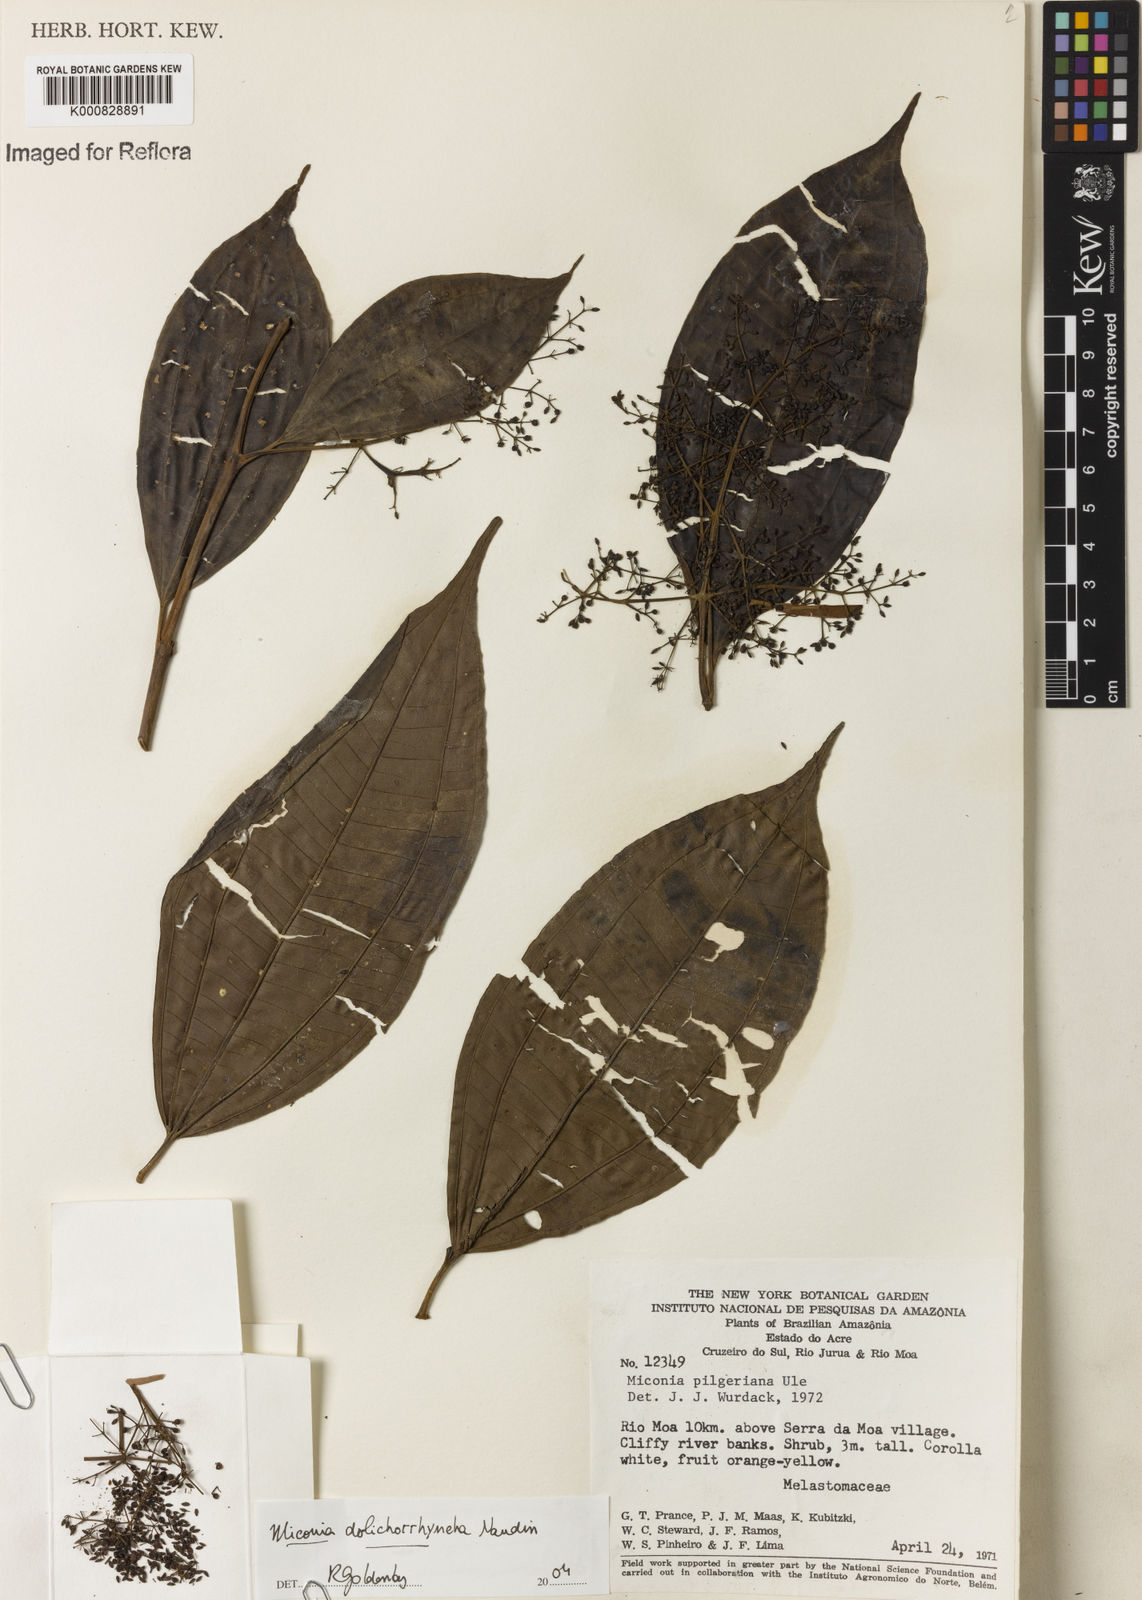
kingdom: Plantae
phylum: Tracheophyta
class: Magnoliopsida
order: Myrtales
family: Melastomataceae
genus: Miconia
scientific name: Miconia dolichorrhyncha
